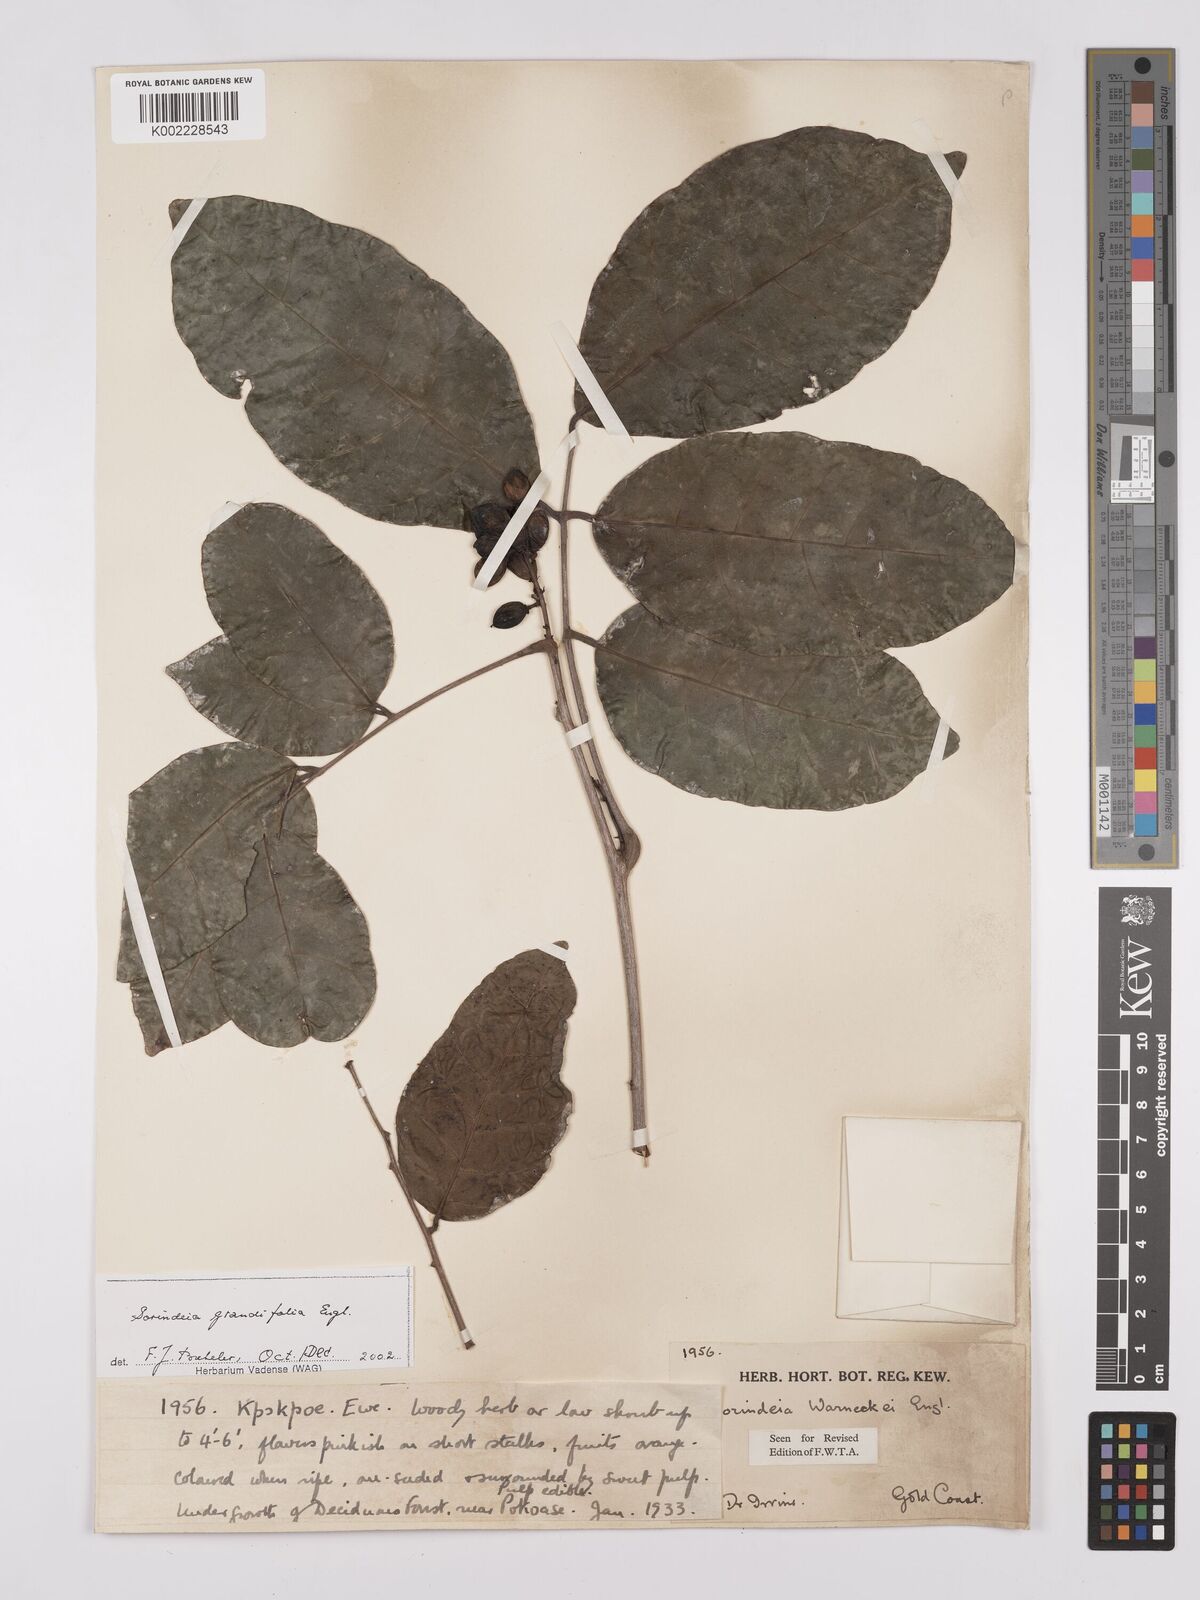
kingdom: Plantae
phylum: Tracheophyta
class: Magnoliopsida
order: Sapindales
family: Anacardiaceae
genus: Sorindeia
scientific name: Sorindeia grandifolia
